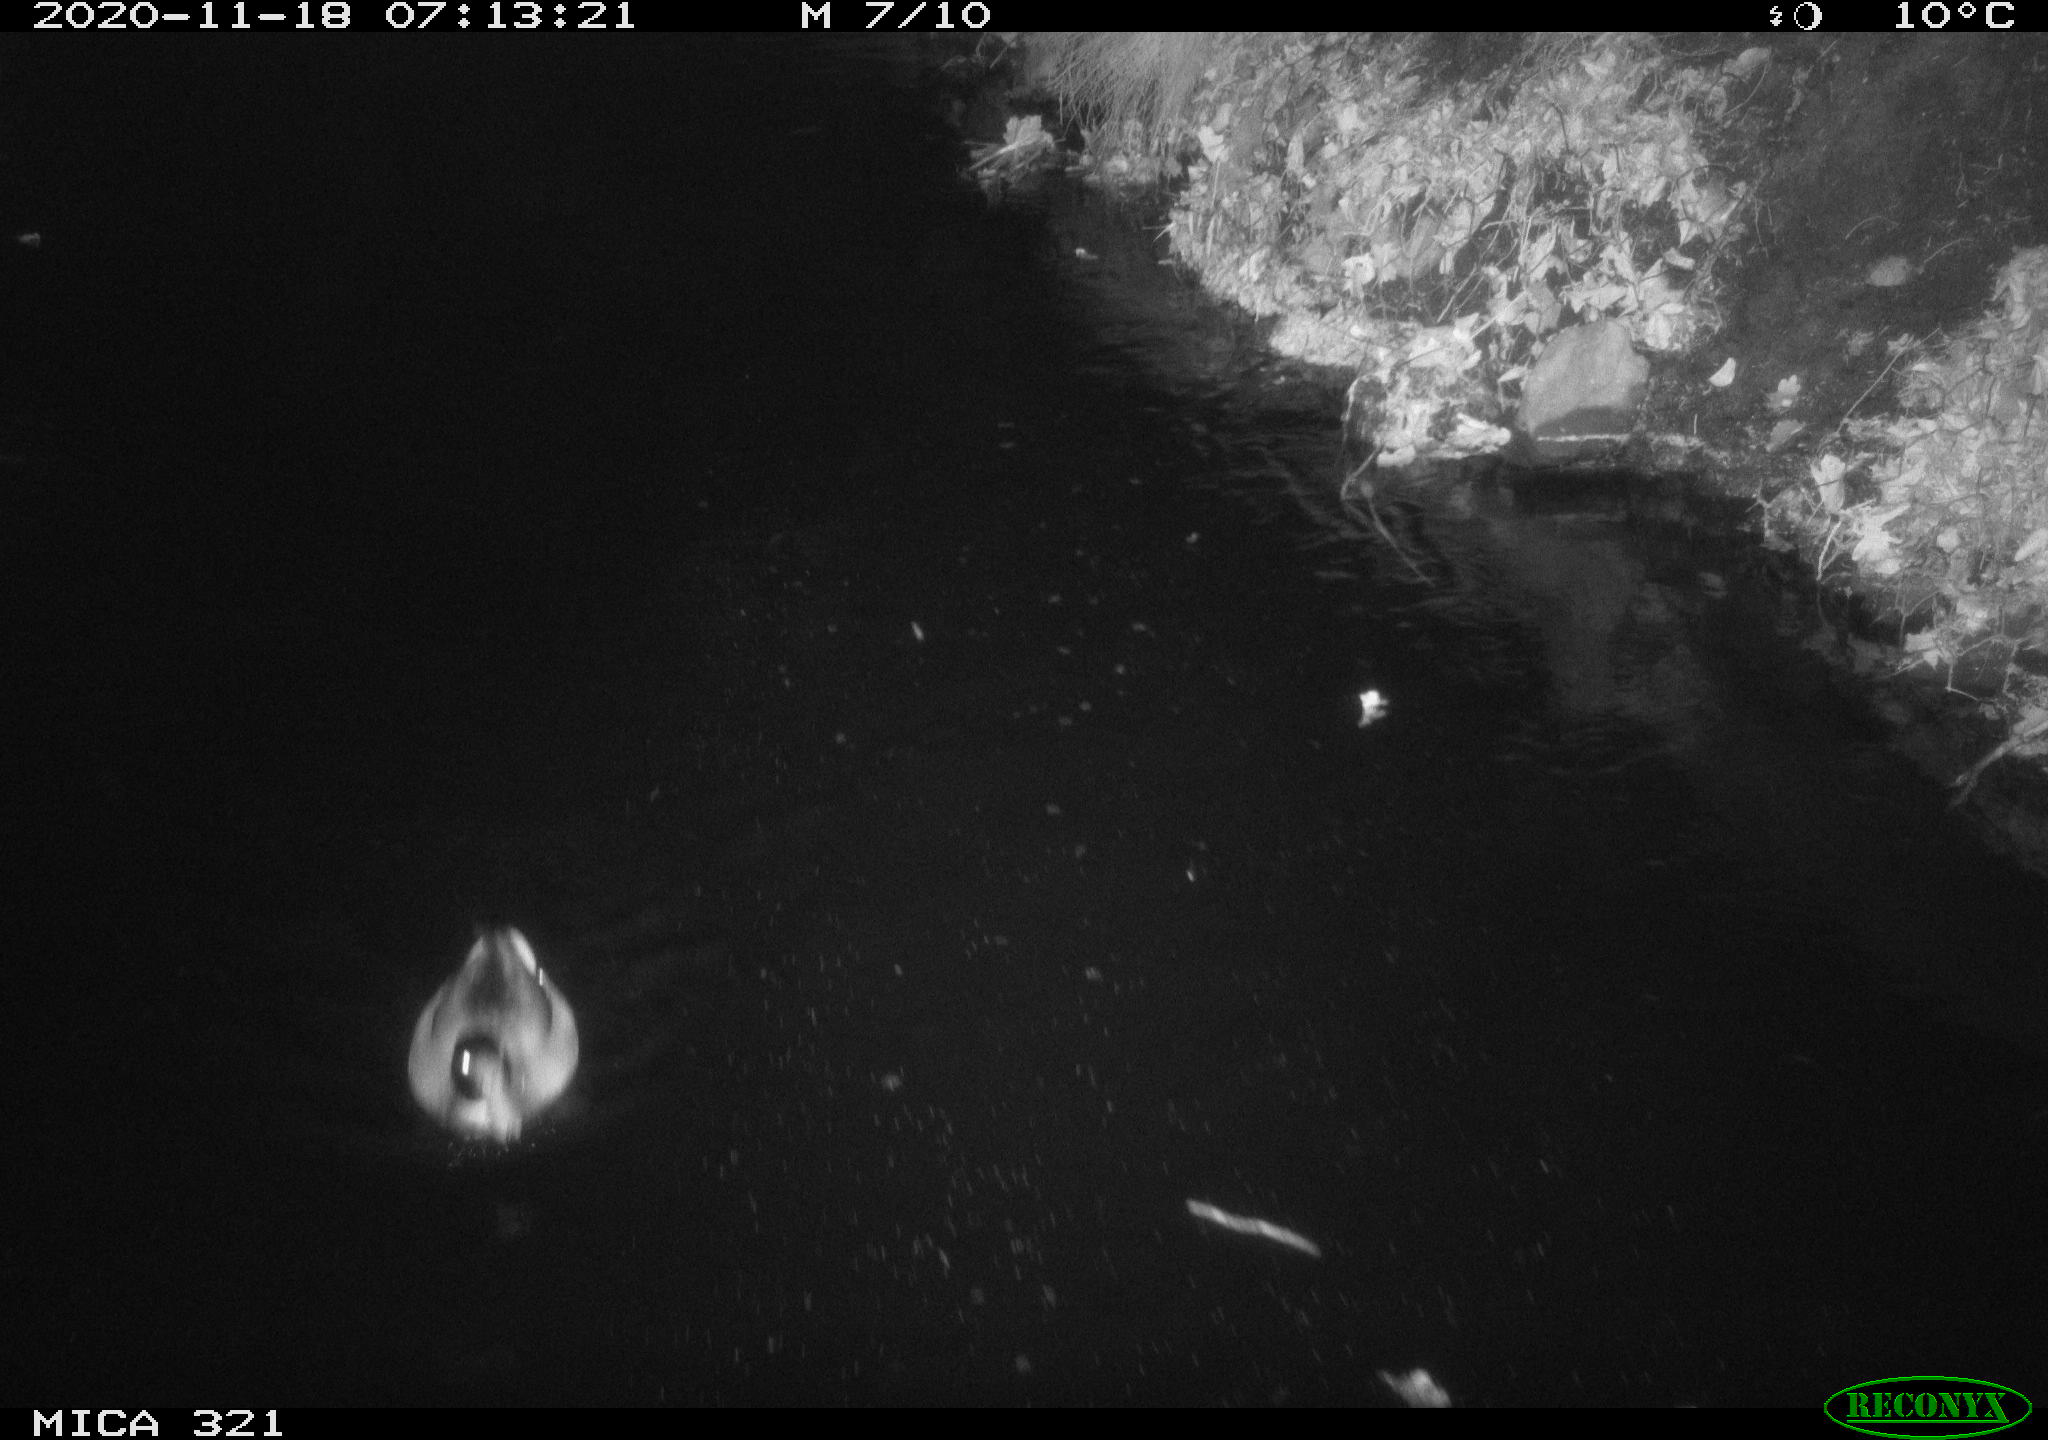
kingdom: Animalia
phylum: Chordata
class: Aves
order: Anseriformes
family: Anatidae
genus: Anas
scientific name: Anas platyrhynchos
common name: Mallard
